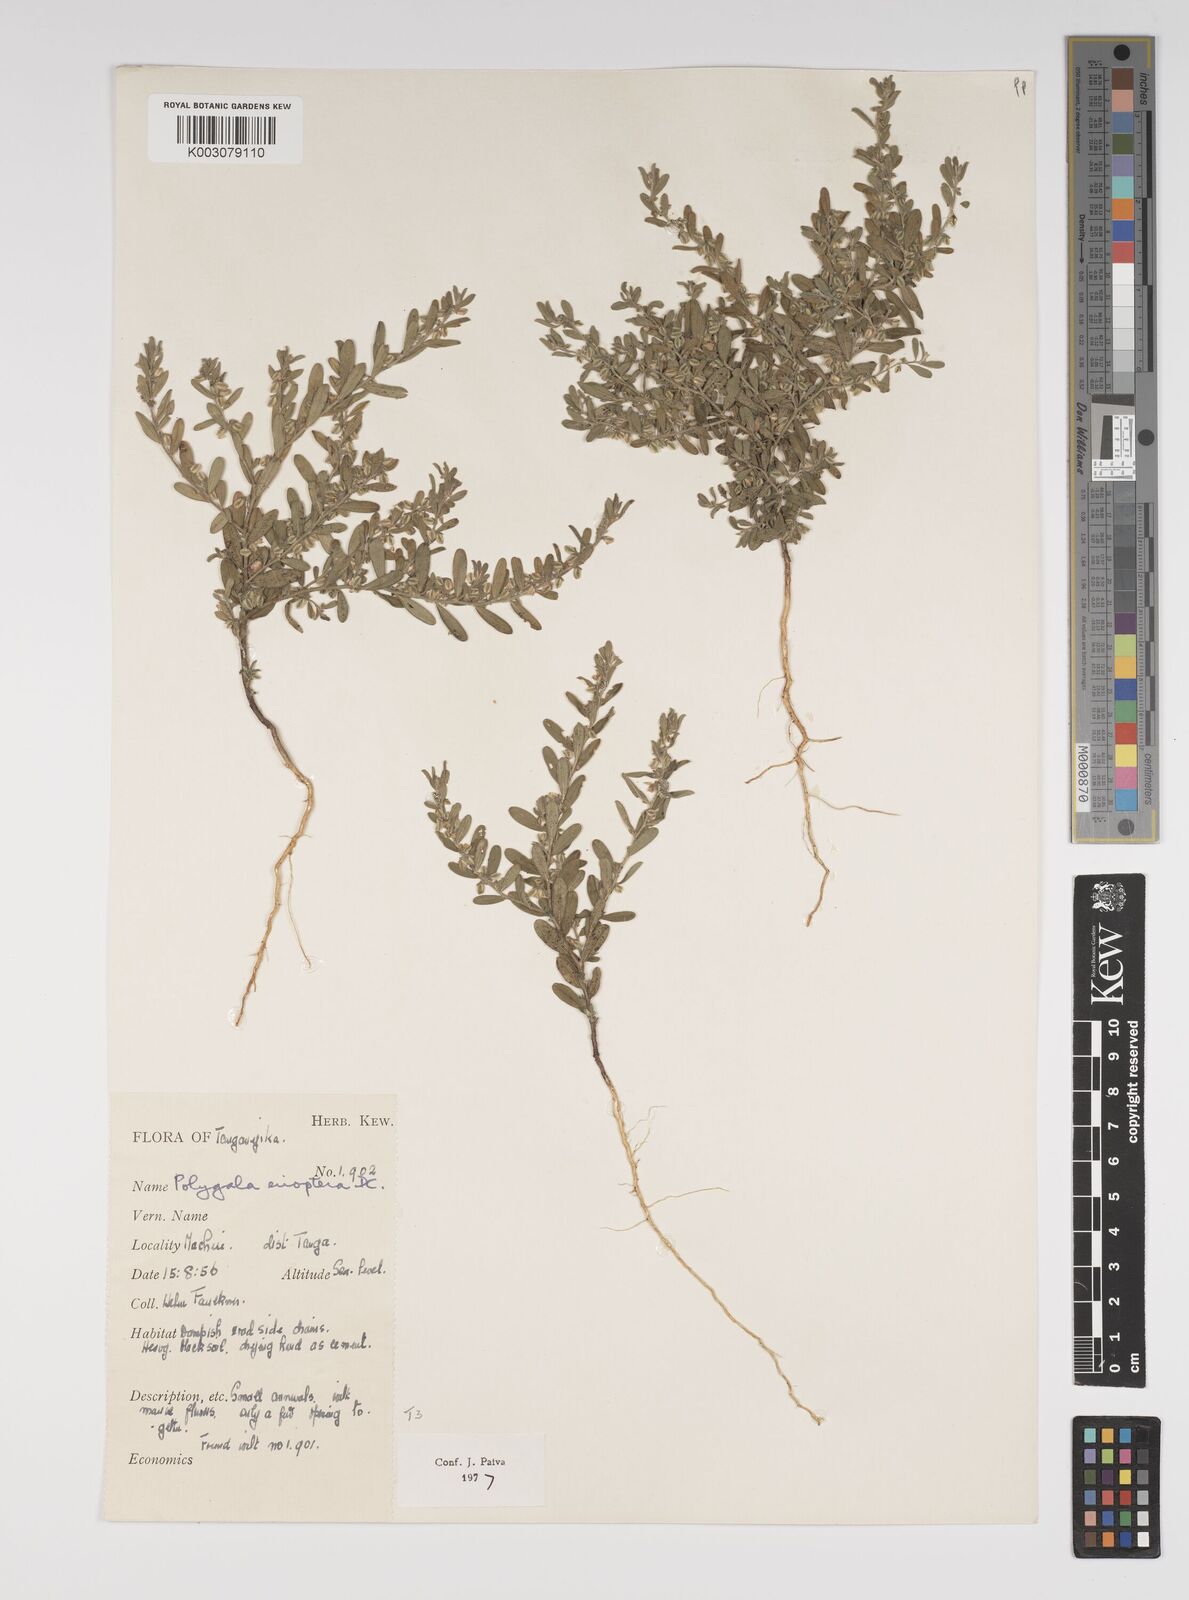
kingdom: Plantae
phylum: Tracheophyta
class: Magnoliopsida
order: Fabales
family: Polygalaceae
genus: Polygala
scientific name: Polygala erioptera
